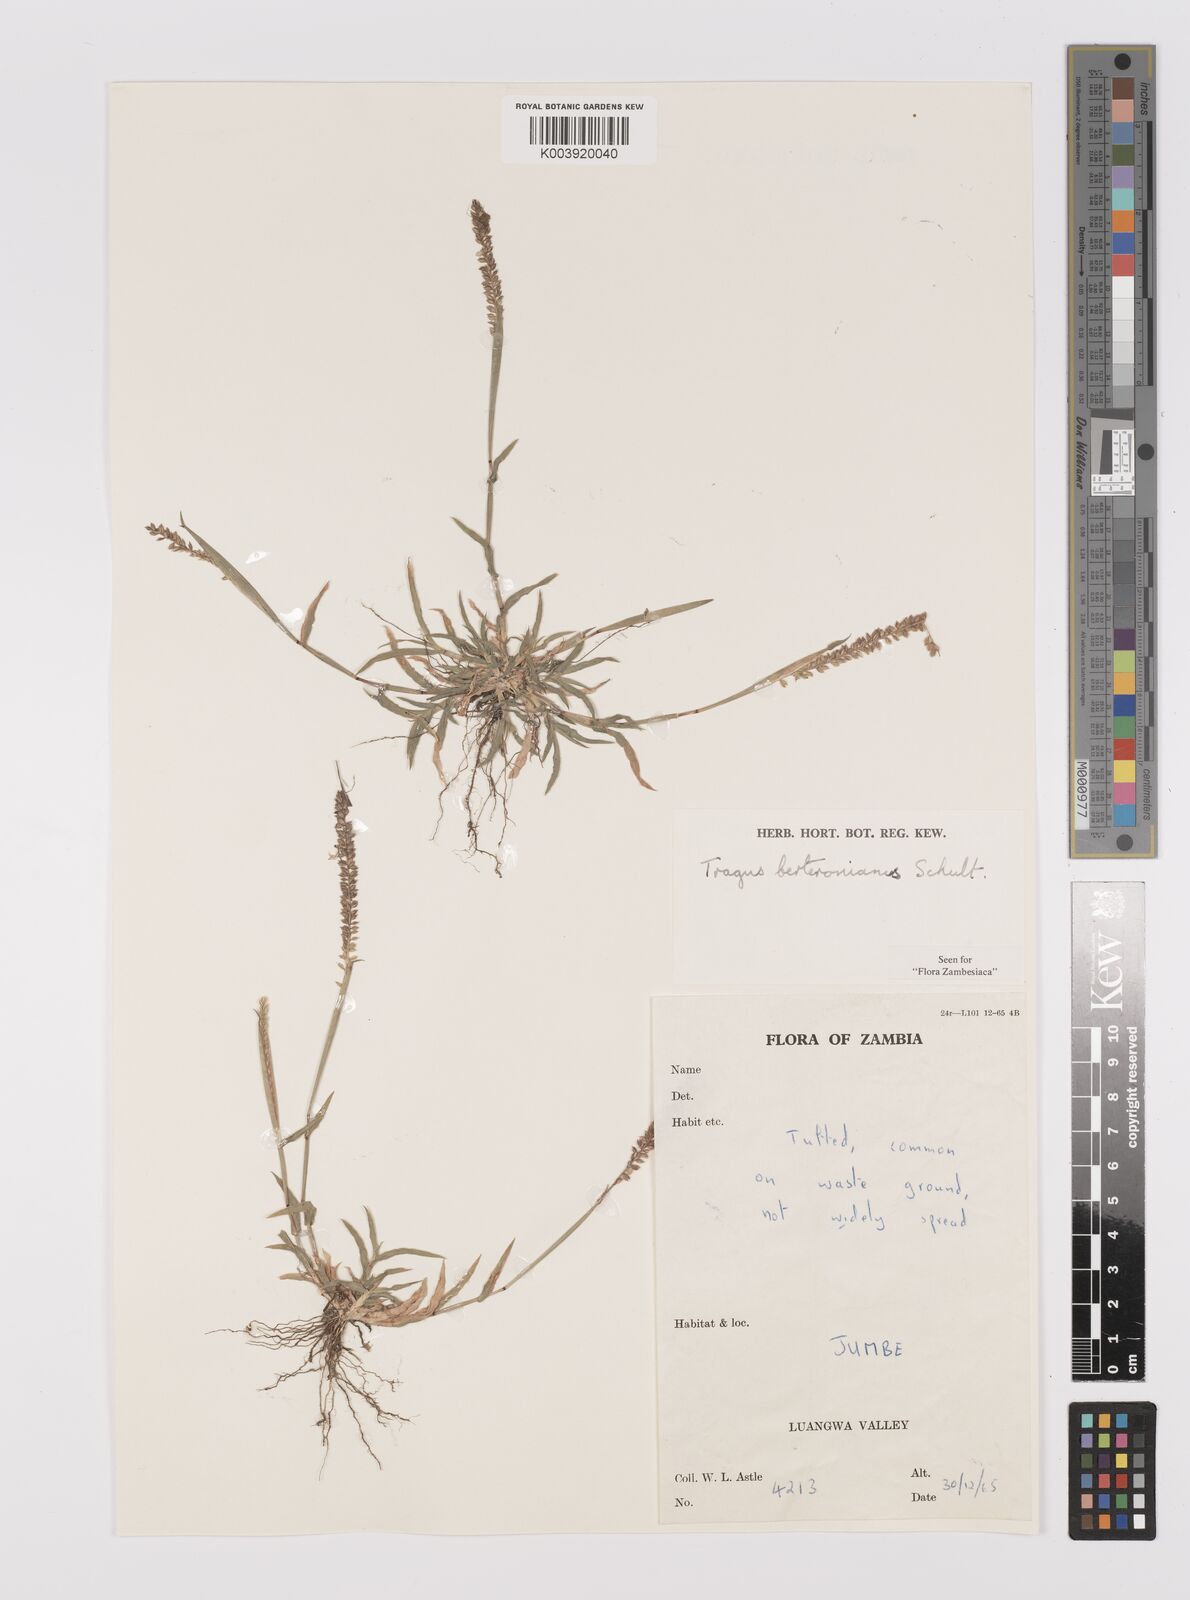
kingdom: Plantae
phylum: Tracheophyta
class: Liliopsida
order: Poales
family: Poaceae
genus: Tragus
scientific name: Tragus berteronianus
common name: African bur-grass
